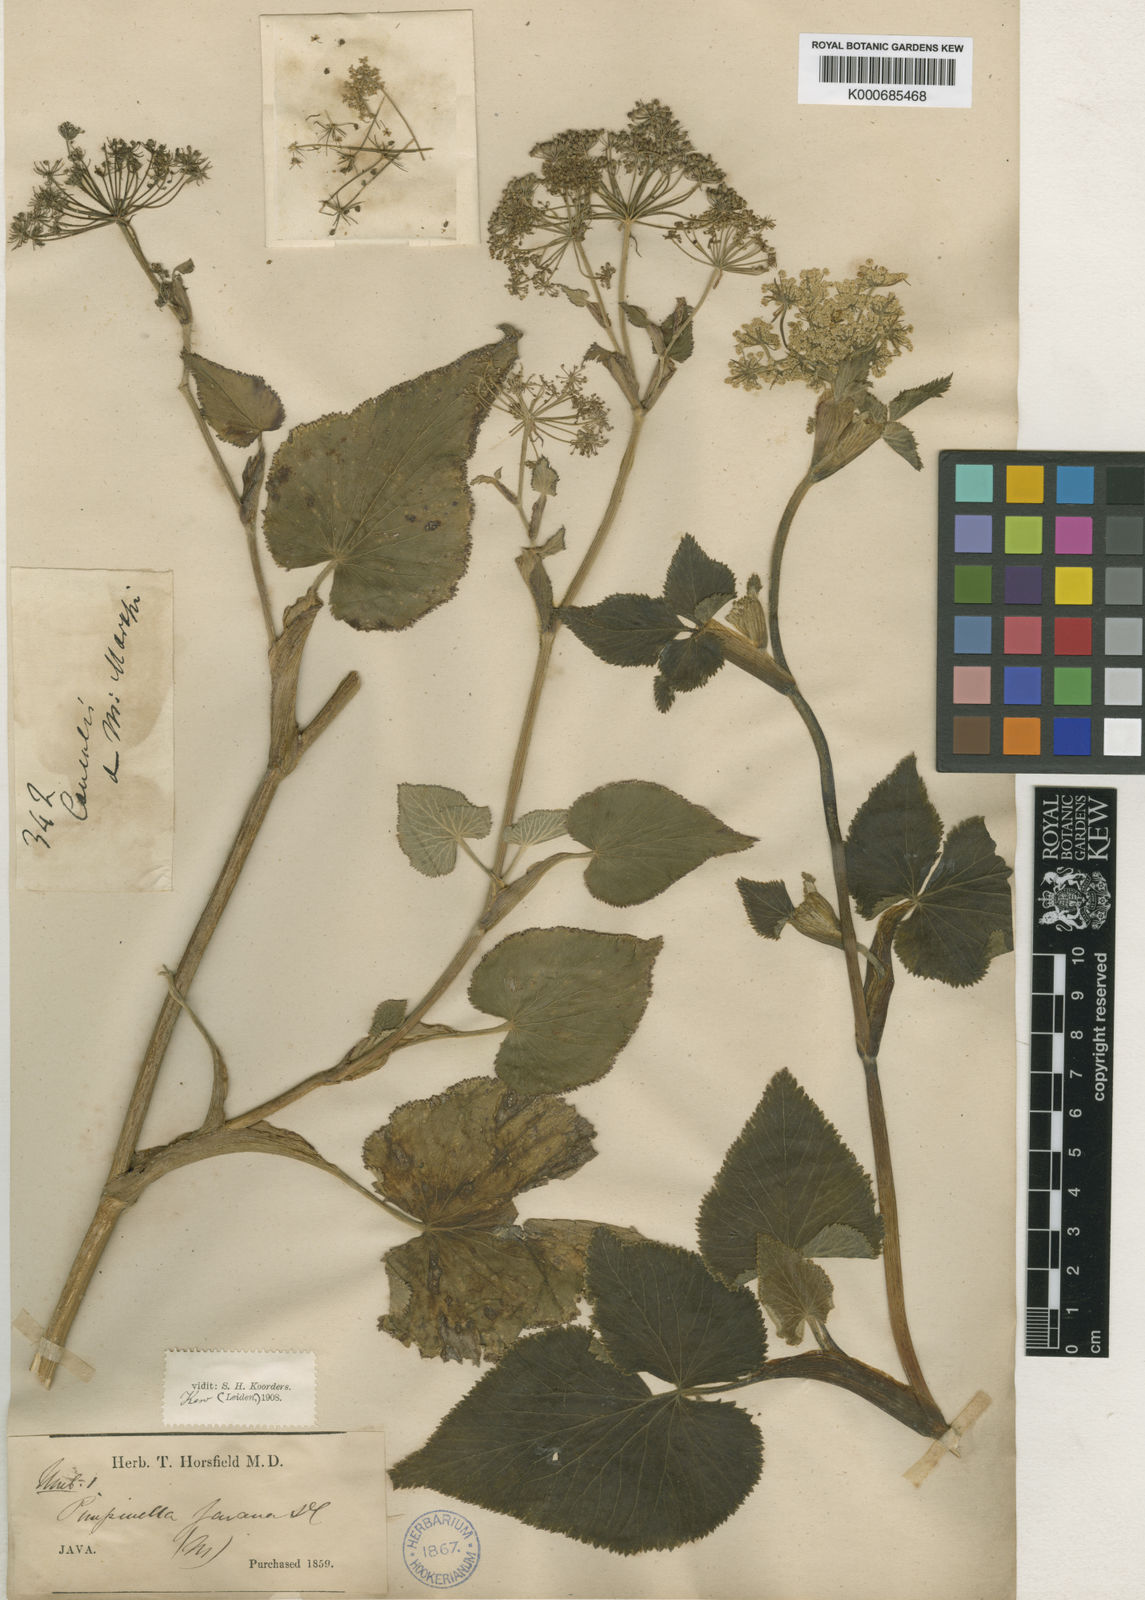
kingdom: Plantae
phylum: Tracheophyta
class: Magnoliopsida
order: Apiales
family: Apiaceae
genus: Pimpinella
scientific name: Pimpinella javana
